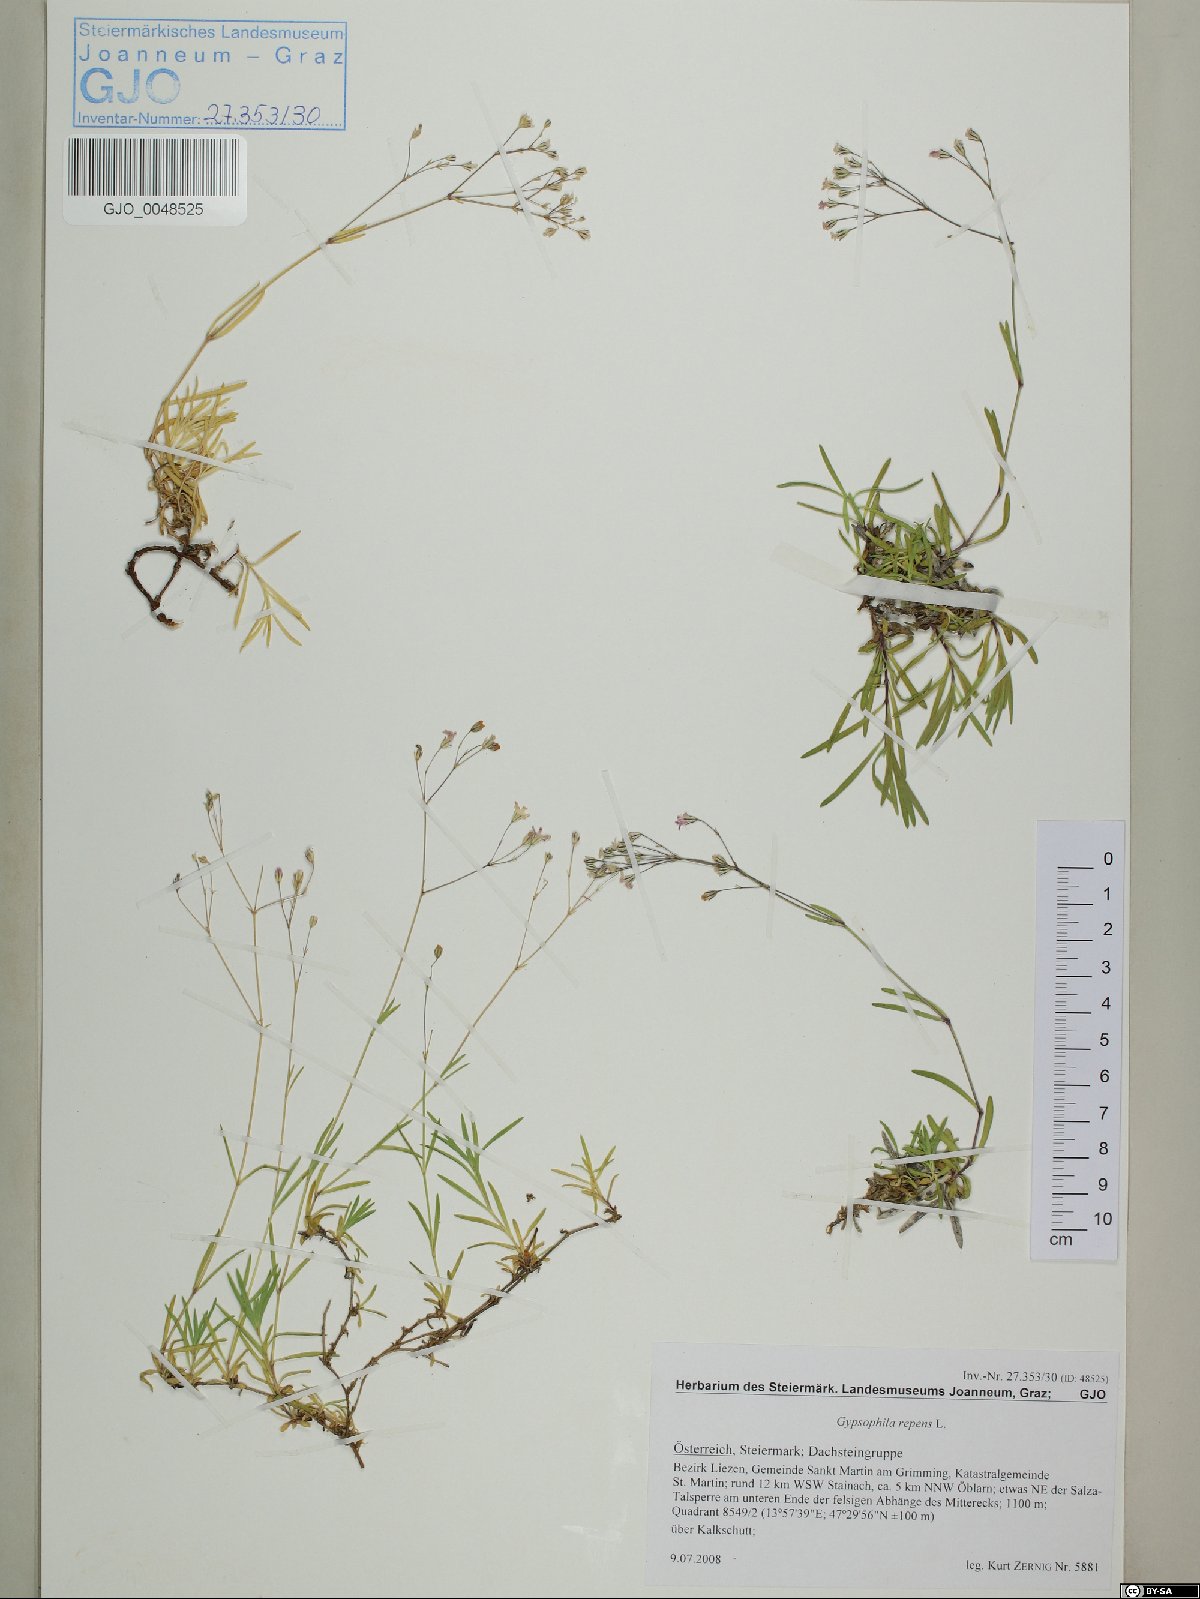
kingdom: Plantae
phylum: Tracheophyta
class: Magnoliopsida
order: Caryophyllales
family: Caryophyllaceae
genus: Gypsophila
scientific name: Gypsophila repens
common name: Creeping baby's-breath
